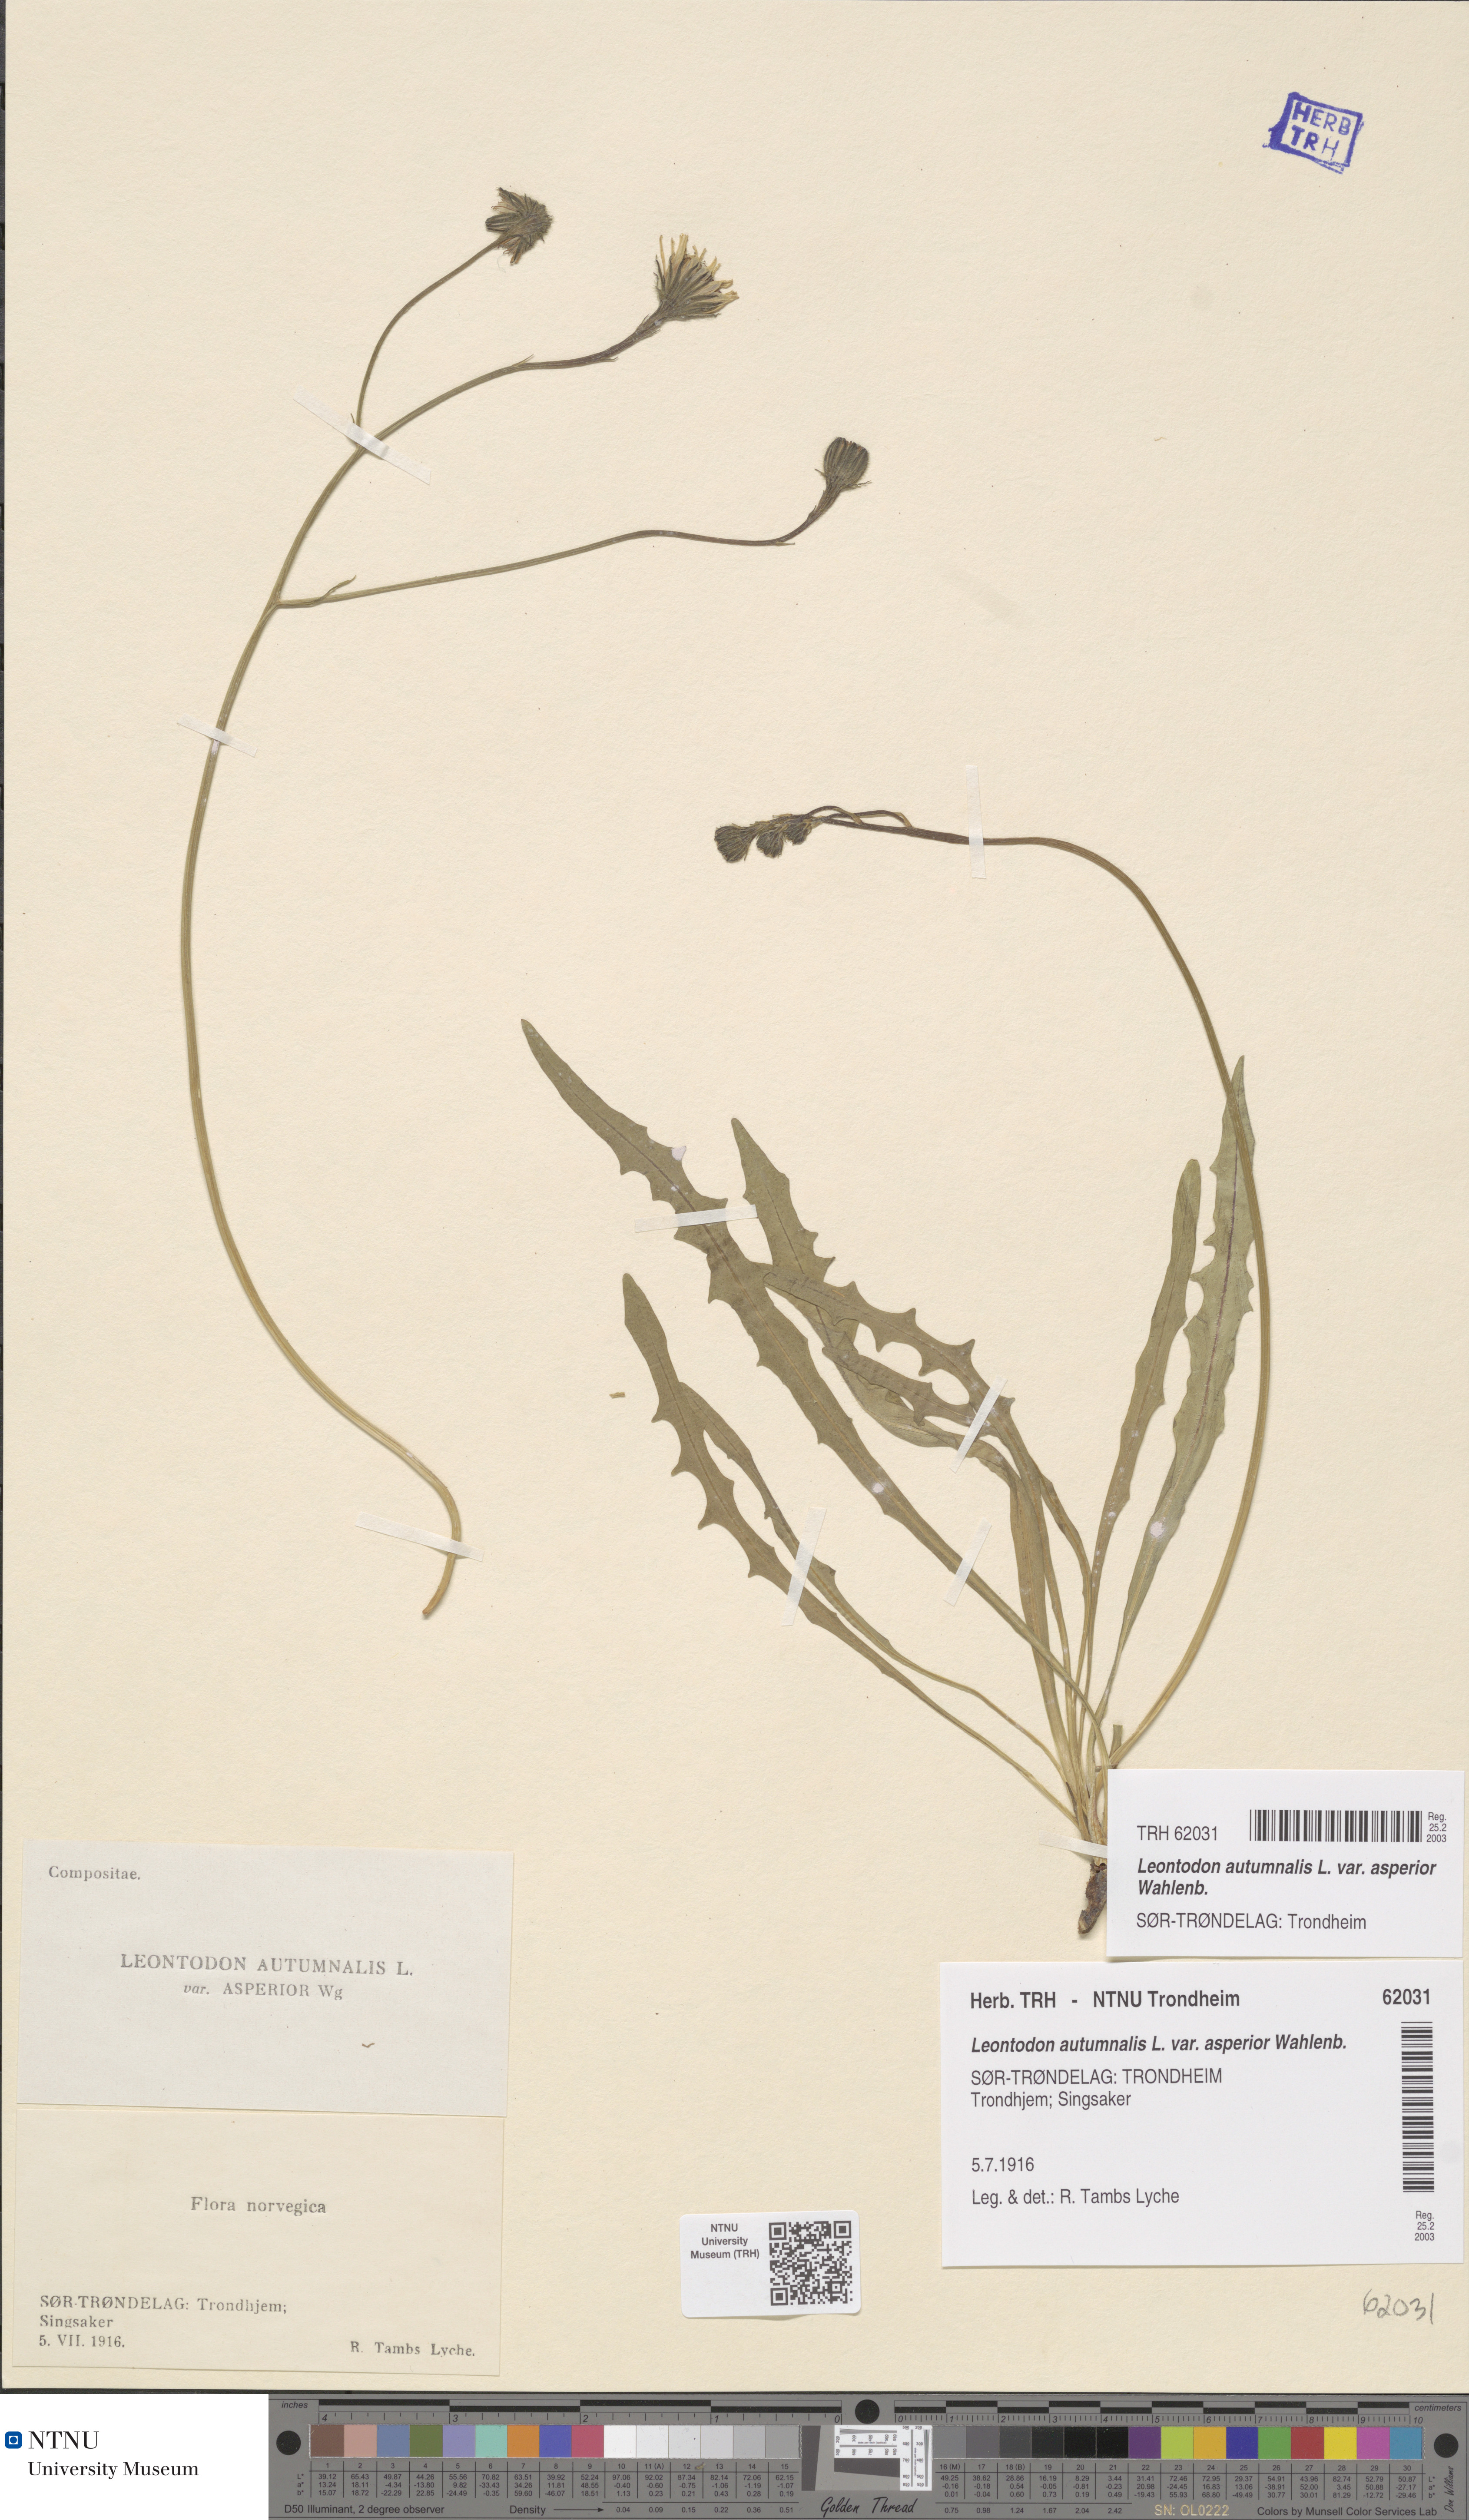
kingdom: Plantae
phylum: Tracheophyta
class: Magnoliopsida
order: Asterales
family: Asteraceae
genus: Scorzoneroides
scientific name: Scorzoneroides autumnalis
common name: Autumn hawkbit
